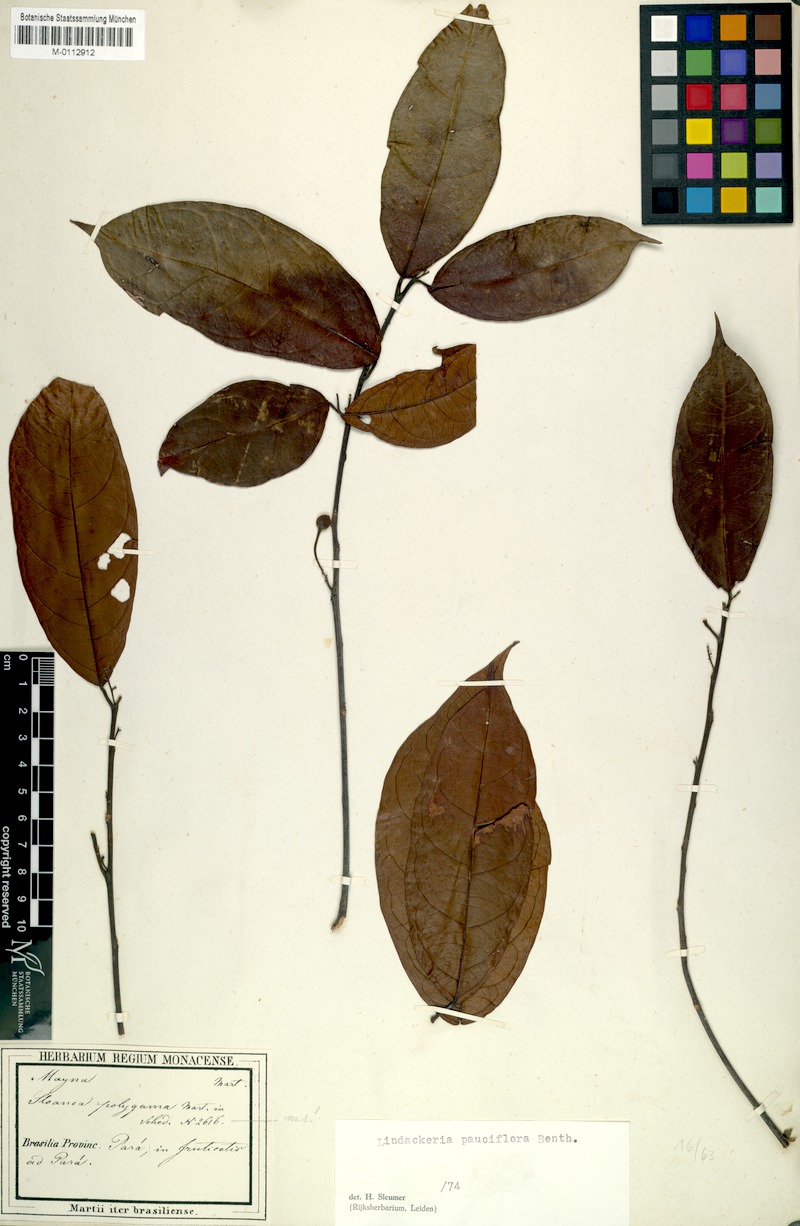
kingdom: Plantae
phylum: Tracheophyta
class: Magnoliopsida
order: Malpighiales
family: Achariaceae
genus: Lindackeria
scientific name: Lindackeria pauciflora
